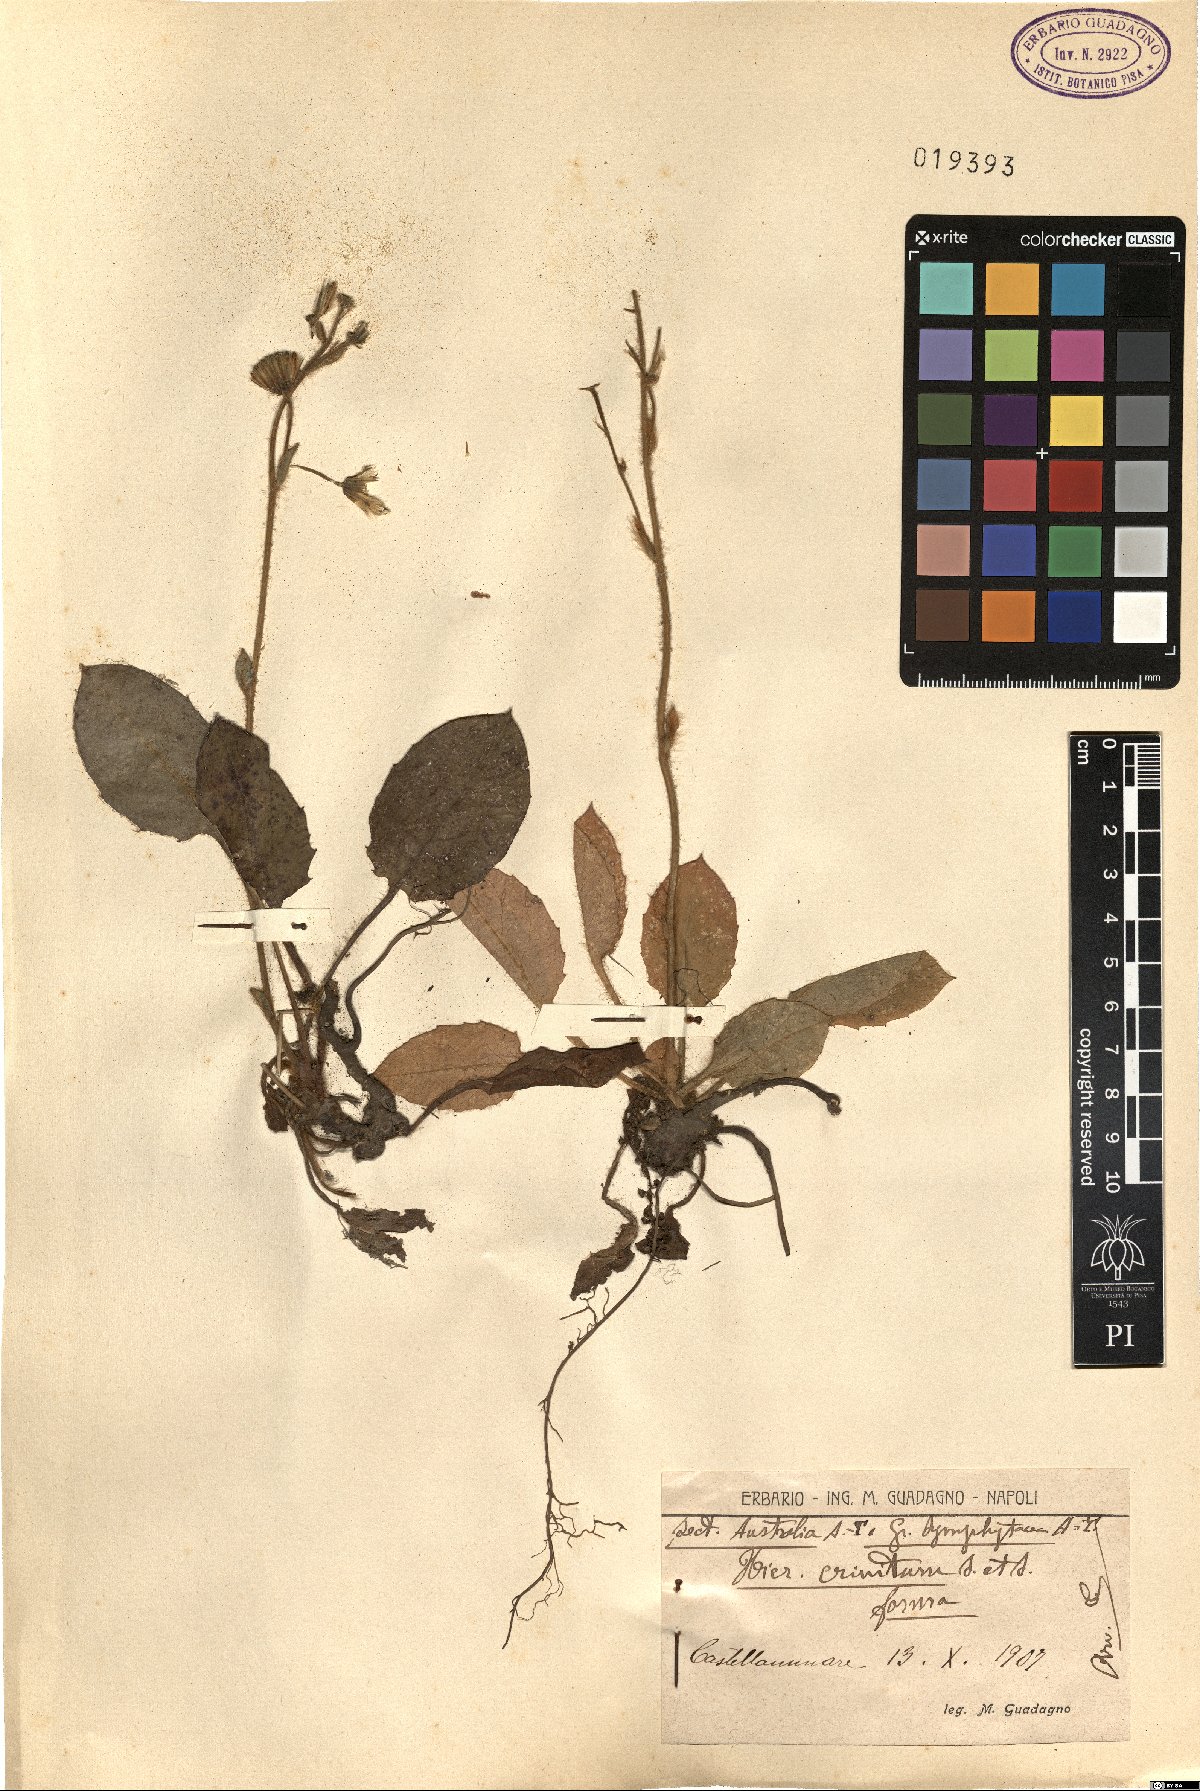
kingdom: Plantae
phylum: Tracheophyta
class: Magnoliopsida
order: Asterales
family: Asteraceae
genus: Hieracium
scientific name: Hieracium racemosum
